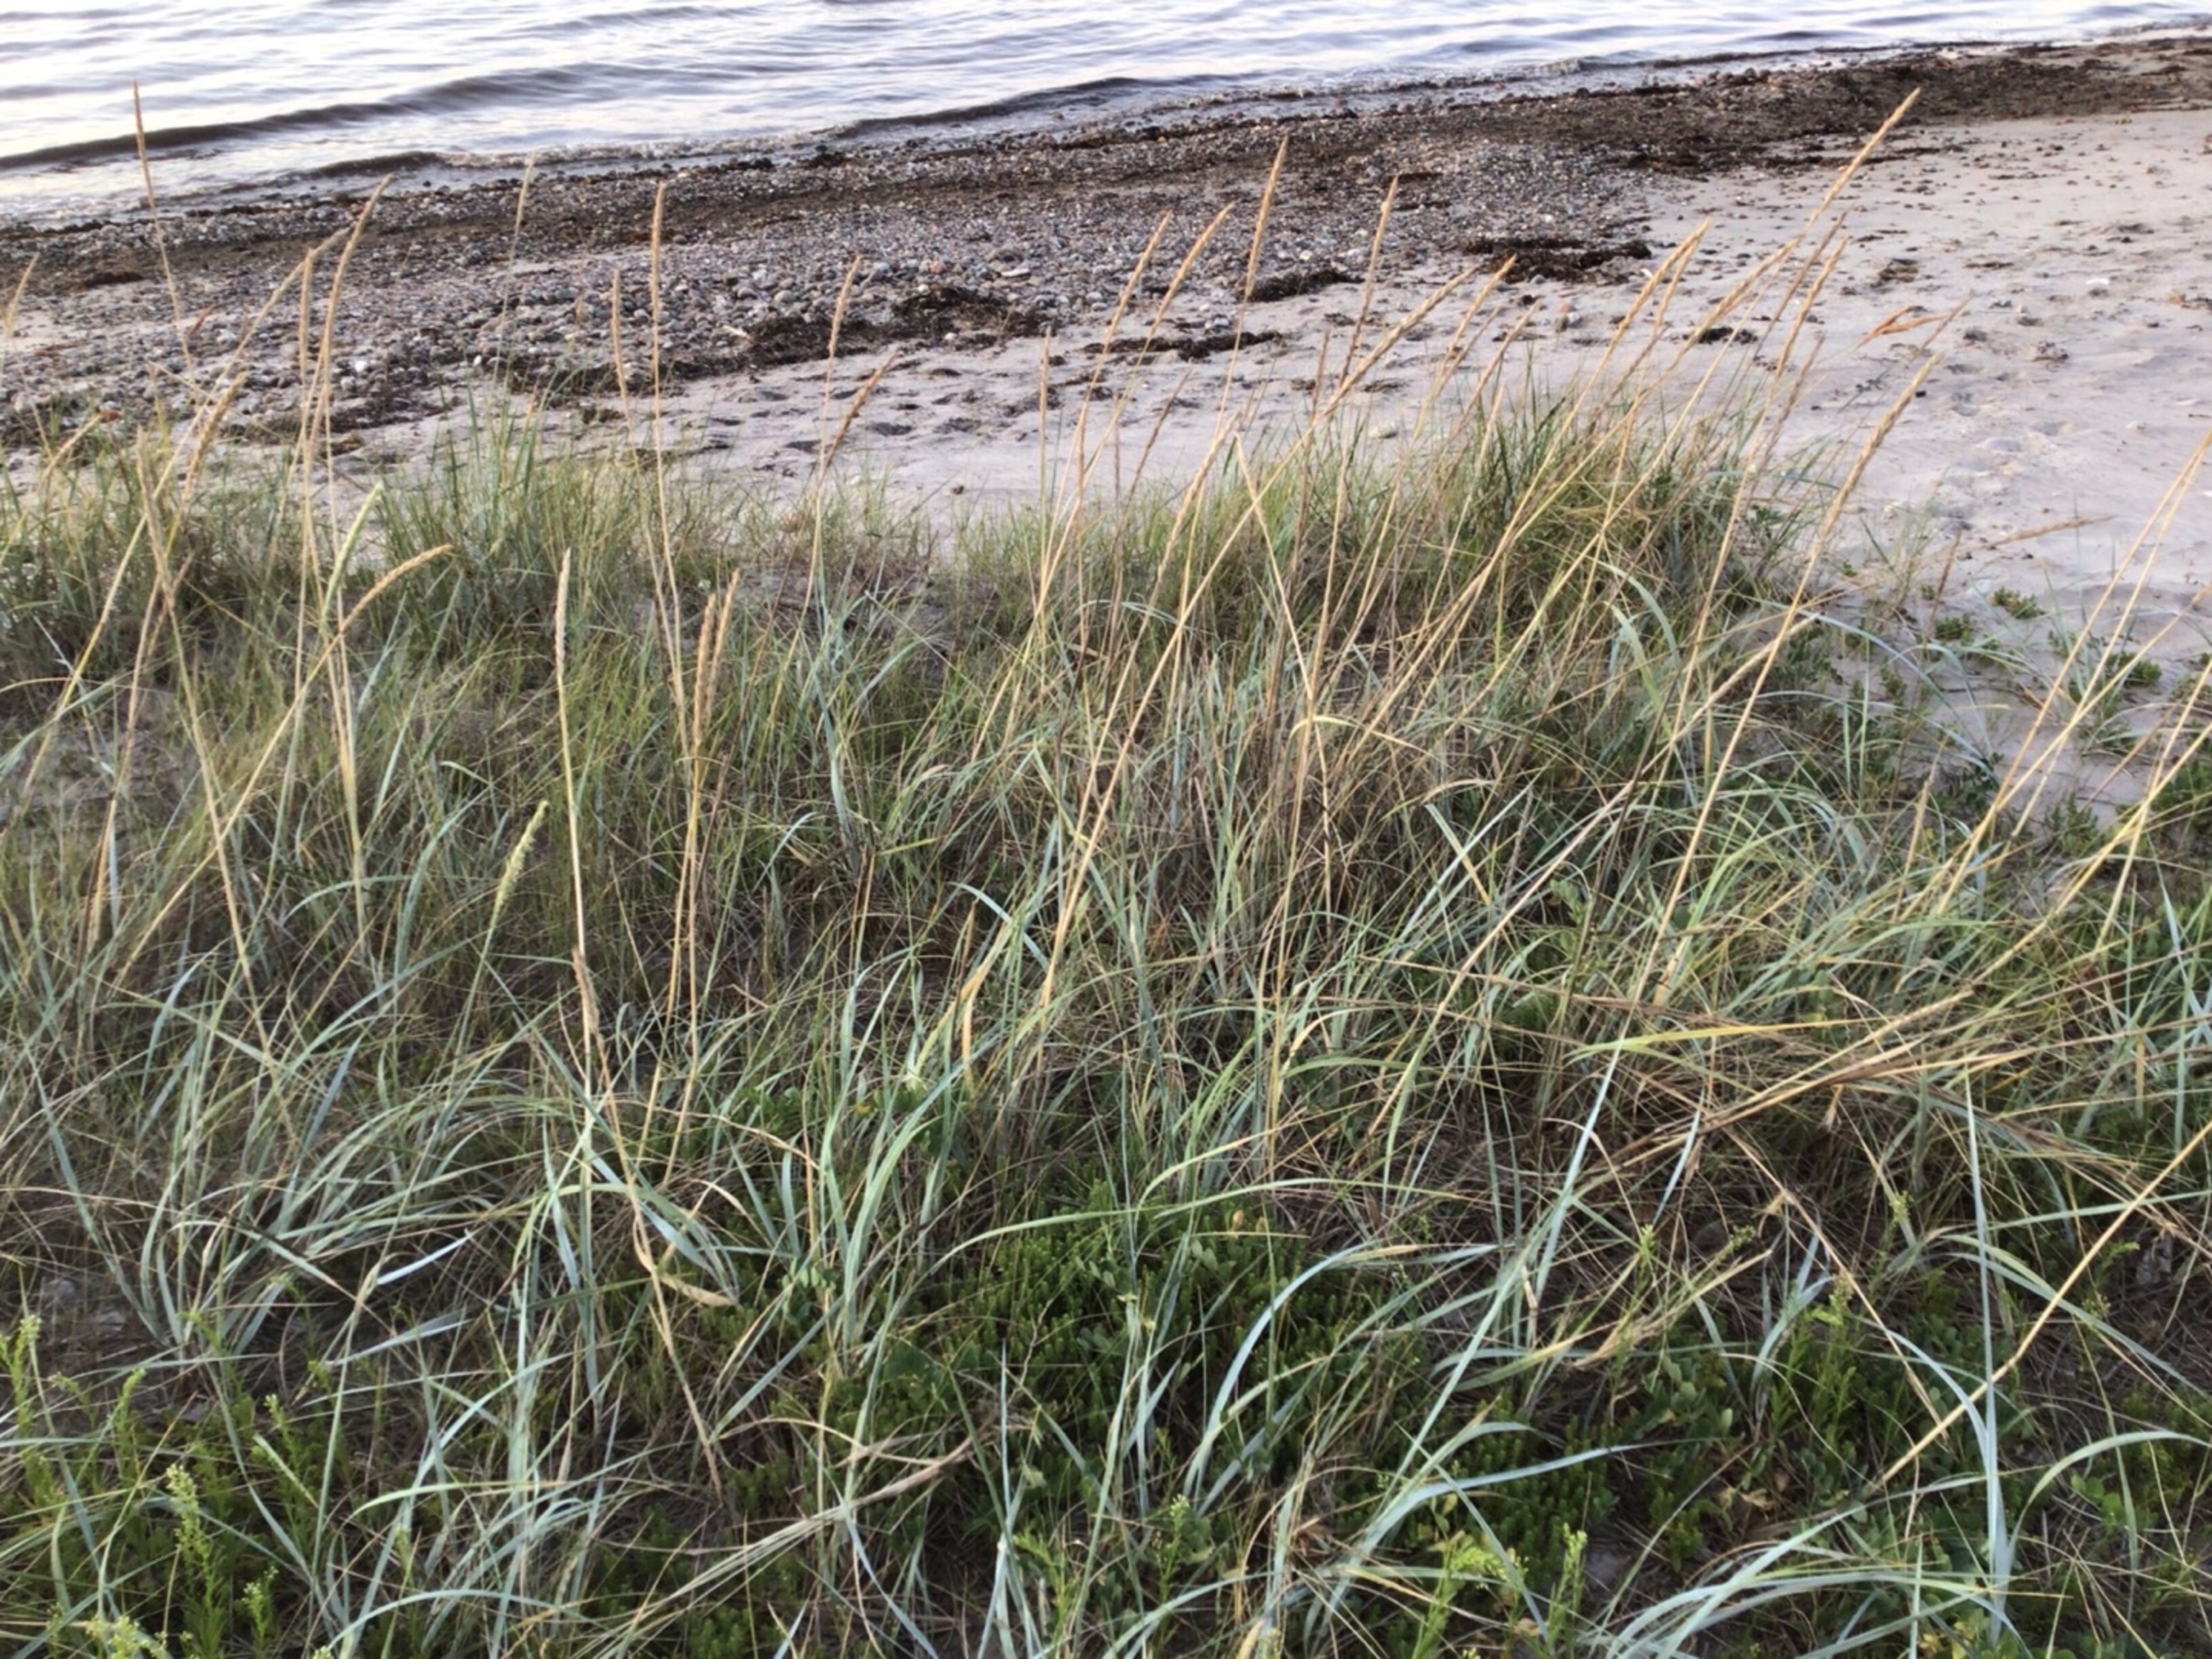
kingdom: Plantae
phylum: Tracheophyta
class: Liliopsida
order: Poales
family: Poaceae
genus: Leymus
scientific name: Leymus arenarius
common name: Marehalm
